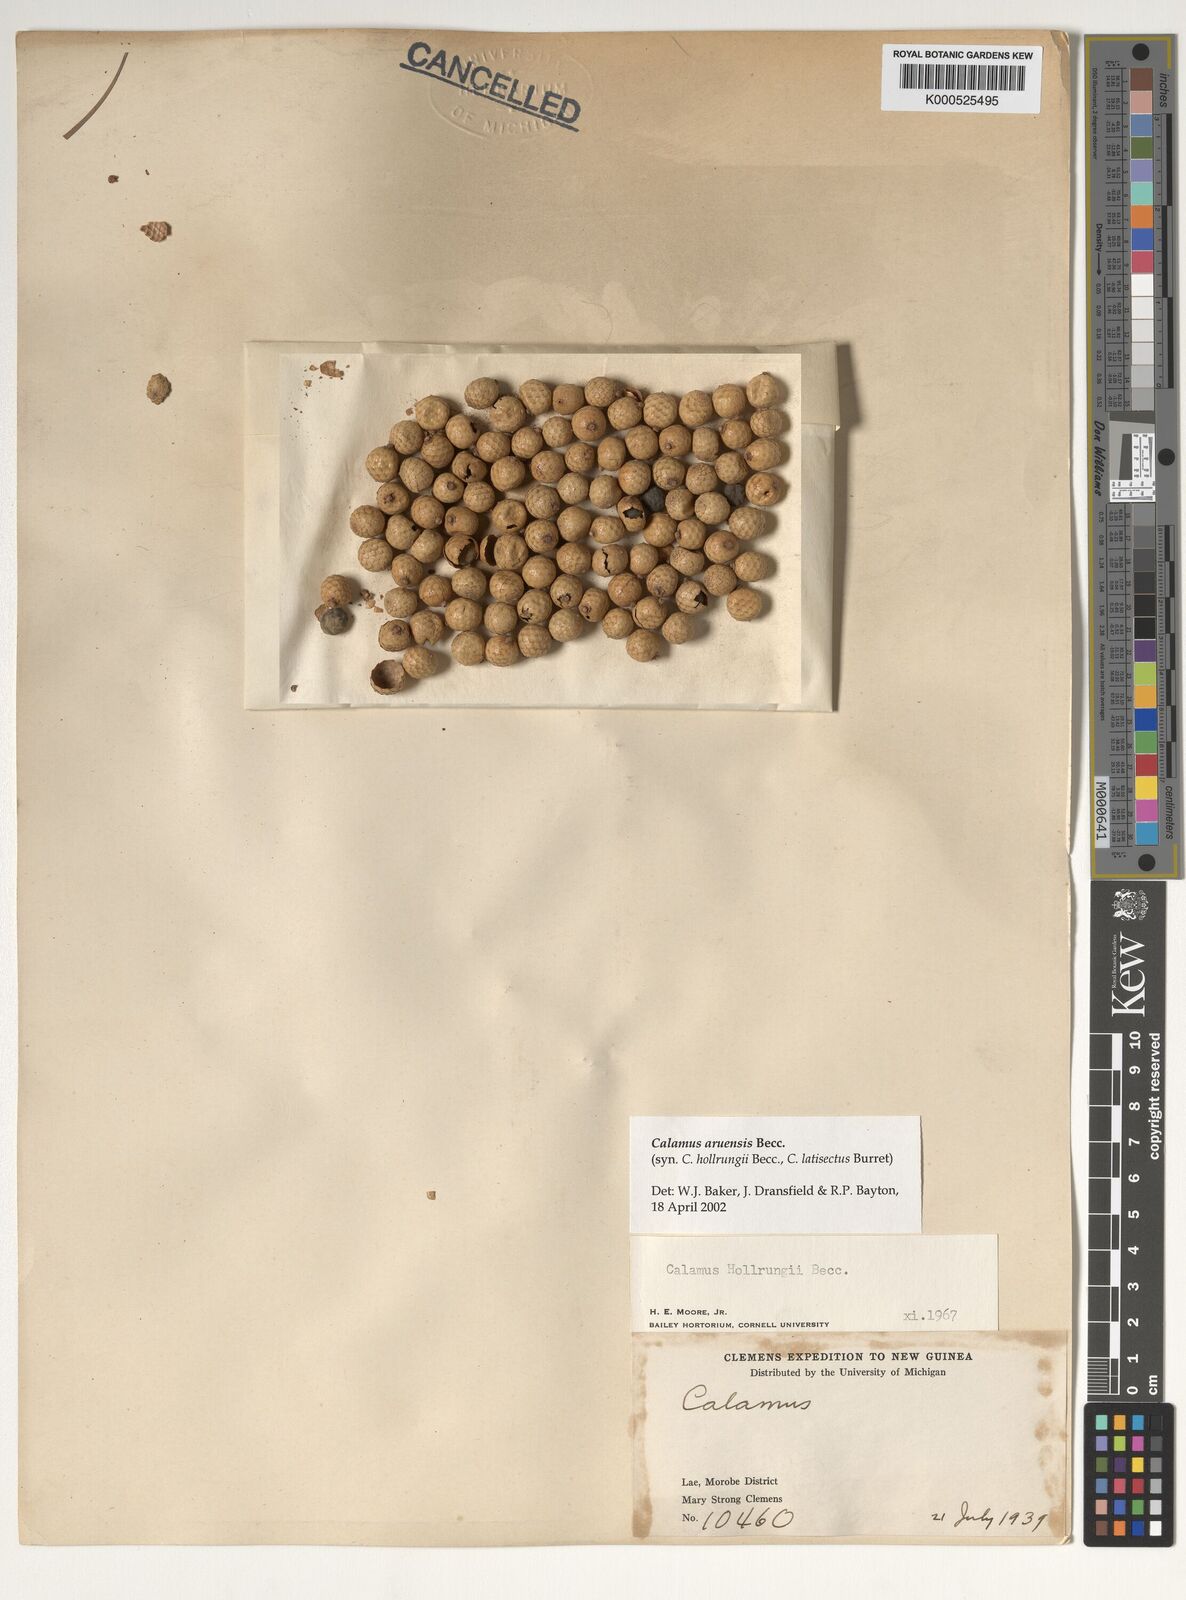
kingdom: Plantae
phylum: Tracheophyta
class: Liliopsida
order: Arecales
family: Arecaceae
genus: Calamus
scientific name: Calamus aruensis
